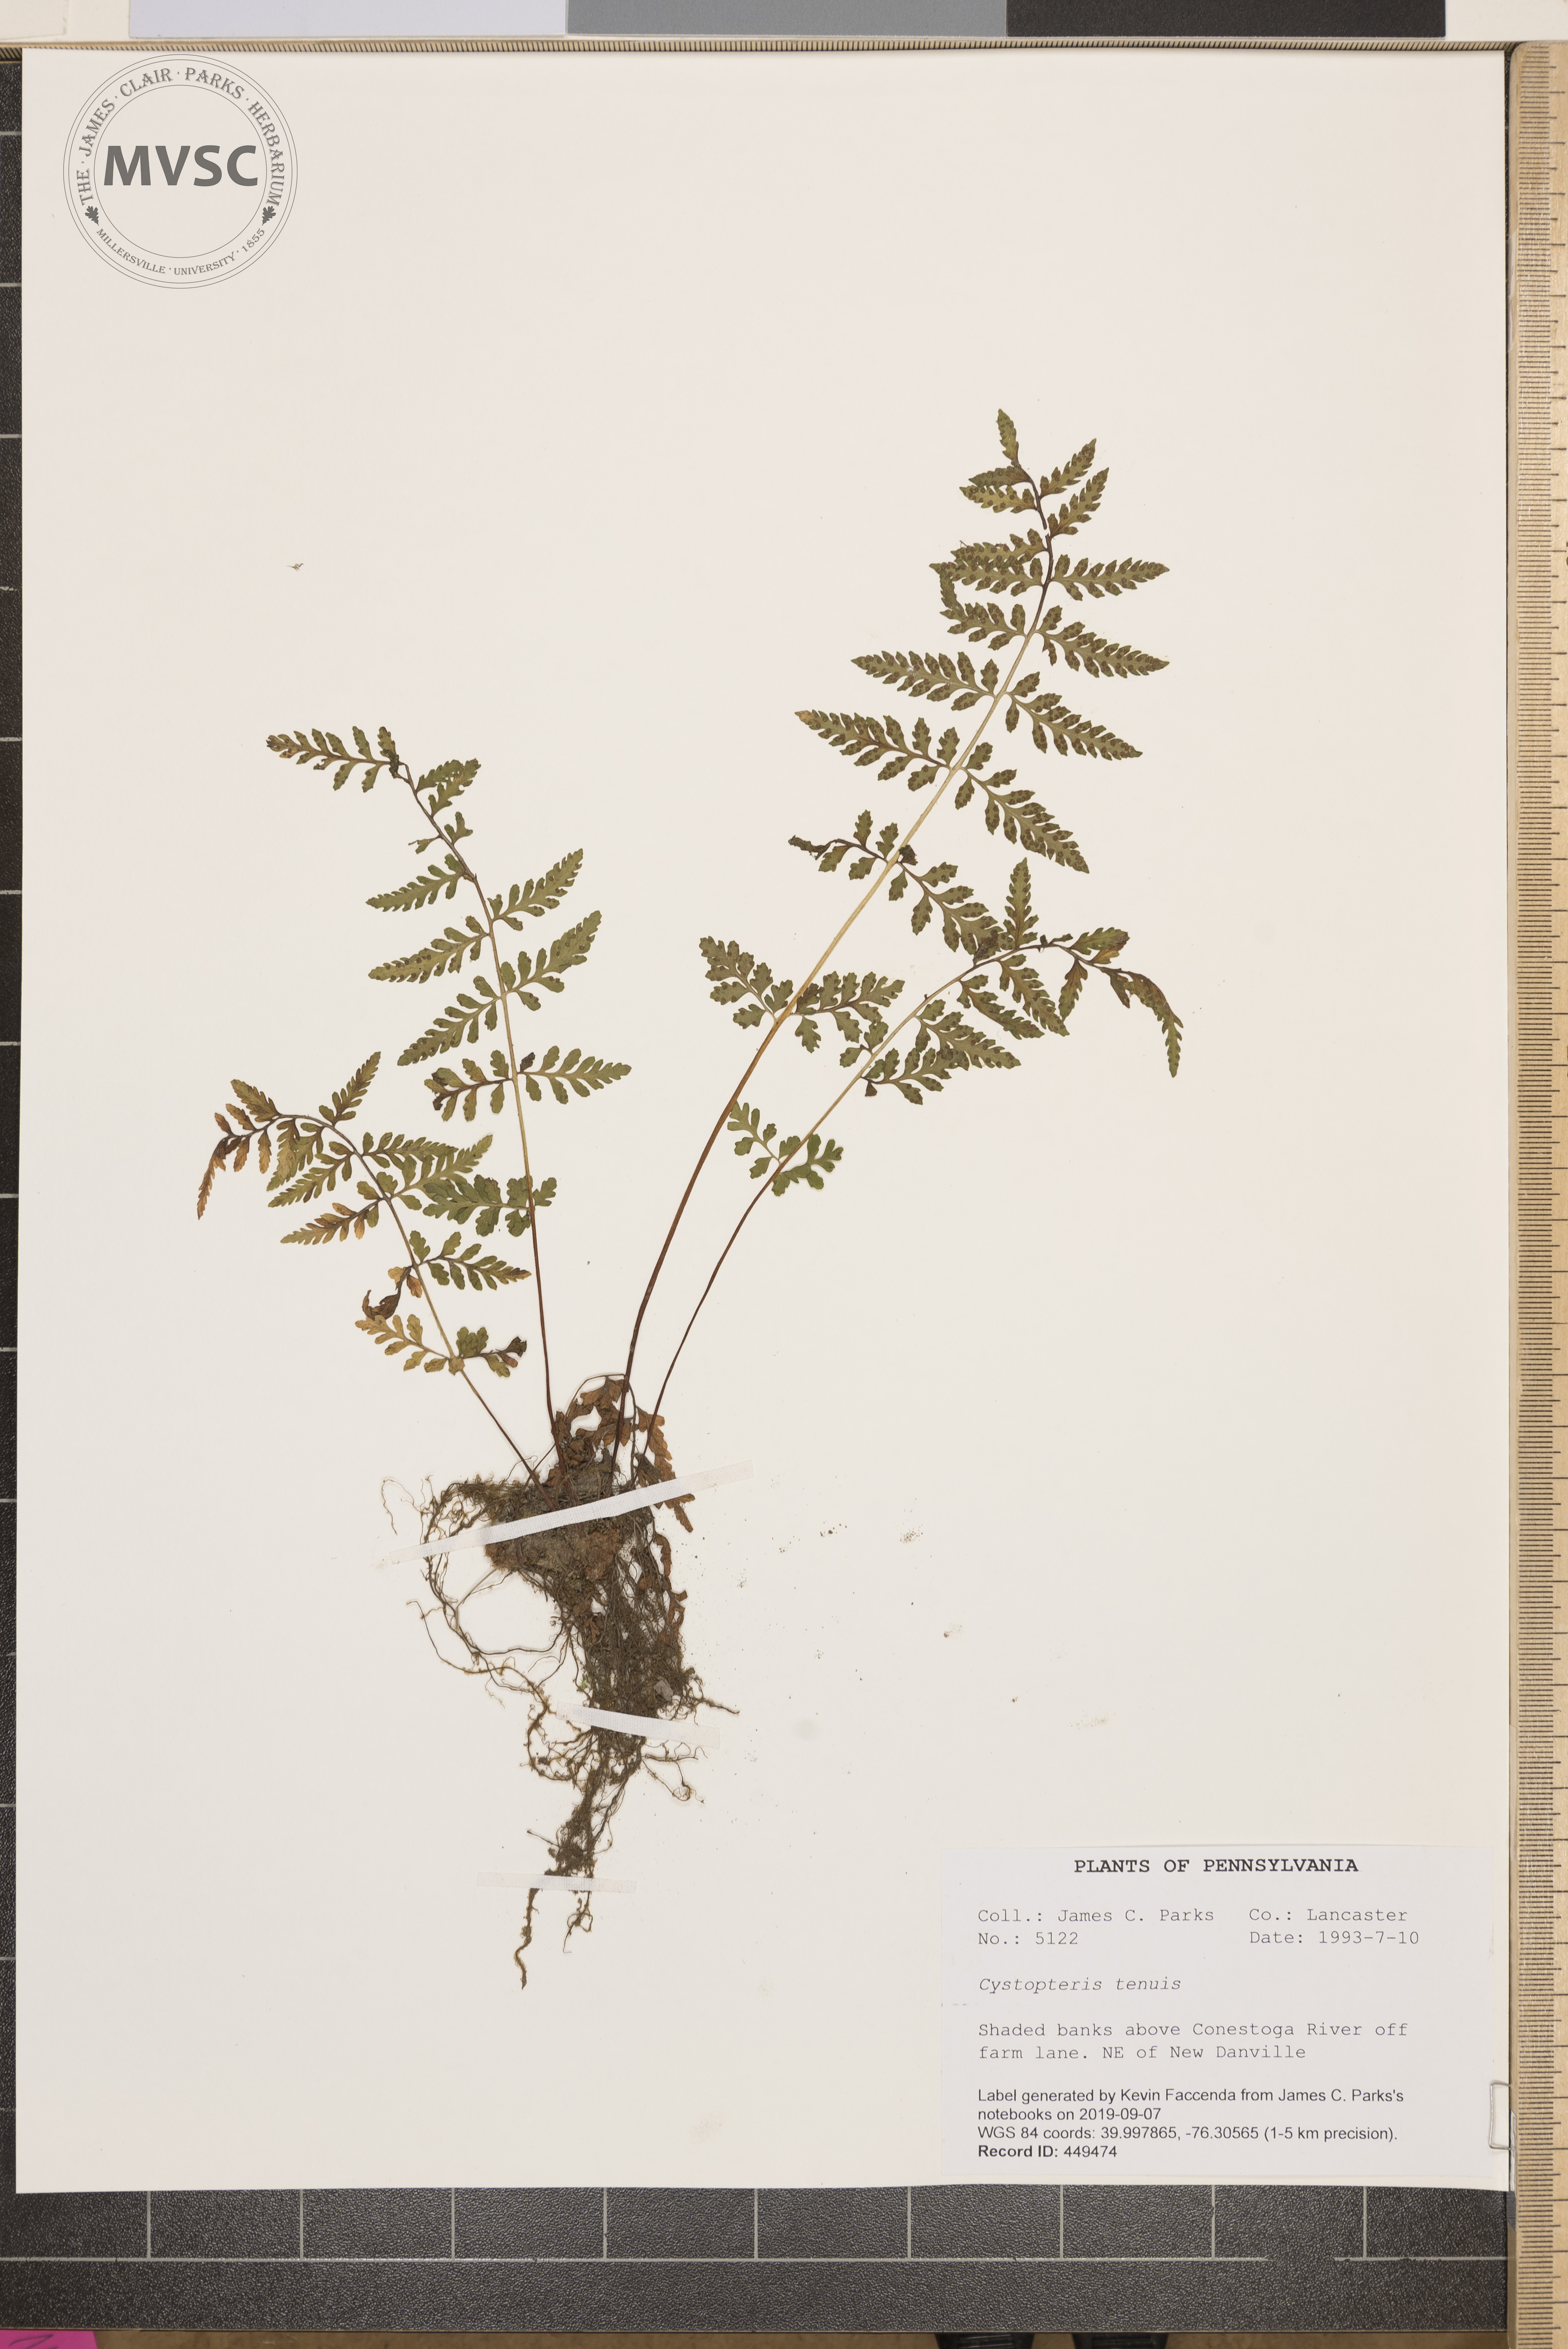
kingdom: Plantae
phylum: Tracheophyta
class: Polypodiopsida
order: Polypodiales
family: Cystopteridaceae
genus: Cystopteris
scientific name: Cystopteris tenuis
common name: Mackay's brittle fern
